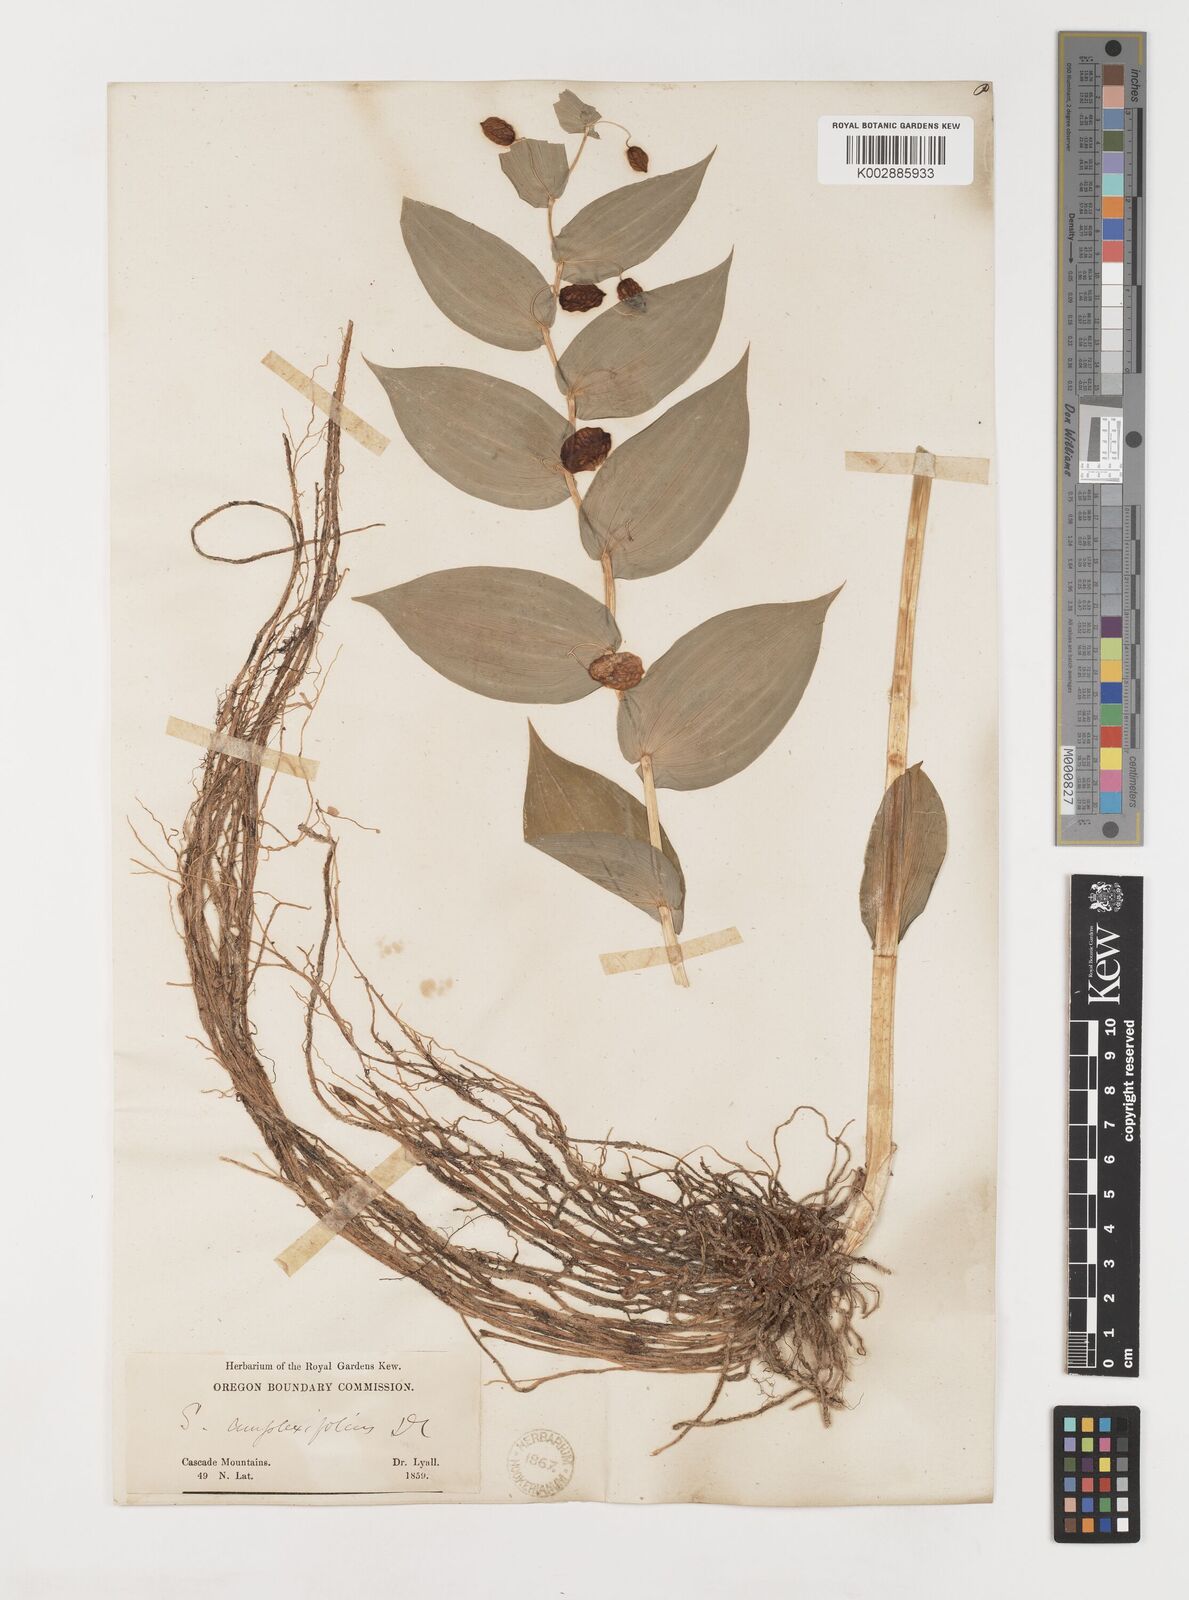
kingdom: Plantae
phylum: Tracheophyta
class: Liliopsida
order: Liliales
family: Liliaceae
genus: Streptopus
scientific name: Streptopus amplexifolius
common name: Clasp twisted stalk
